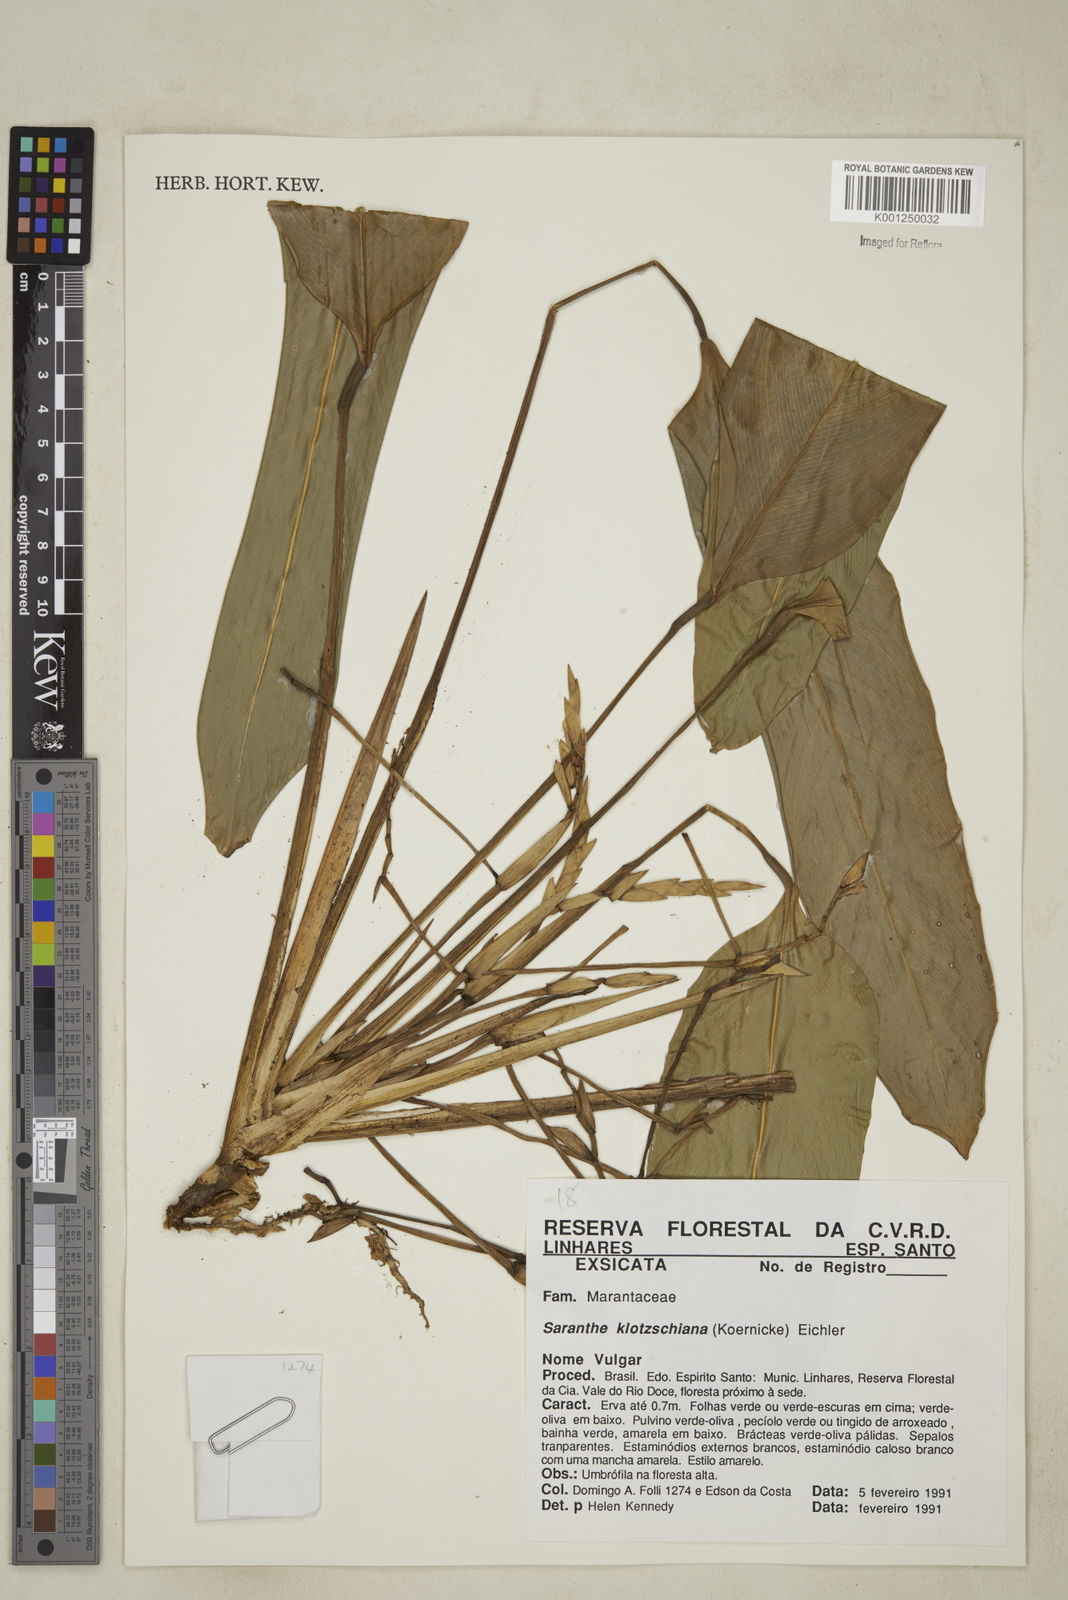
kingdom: Plantae
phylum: Tracheophyta
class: Liliopsida
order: Zingiberales
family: Marantaceae
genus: Saranthe
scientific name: Saranthe klotzschiana
